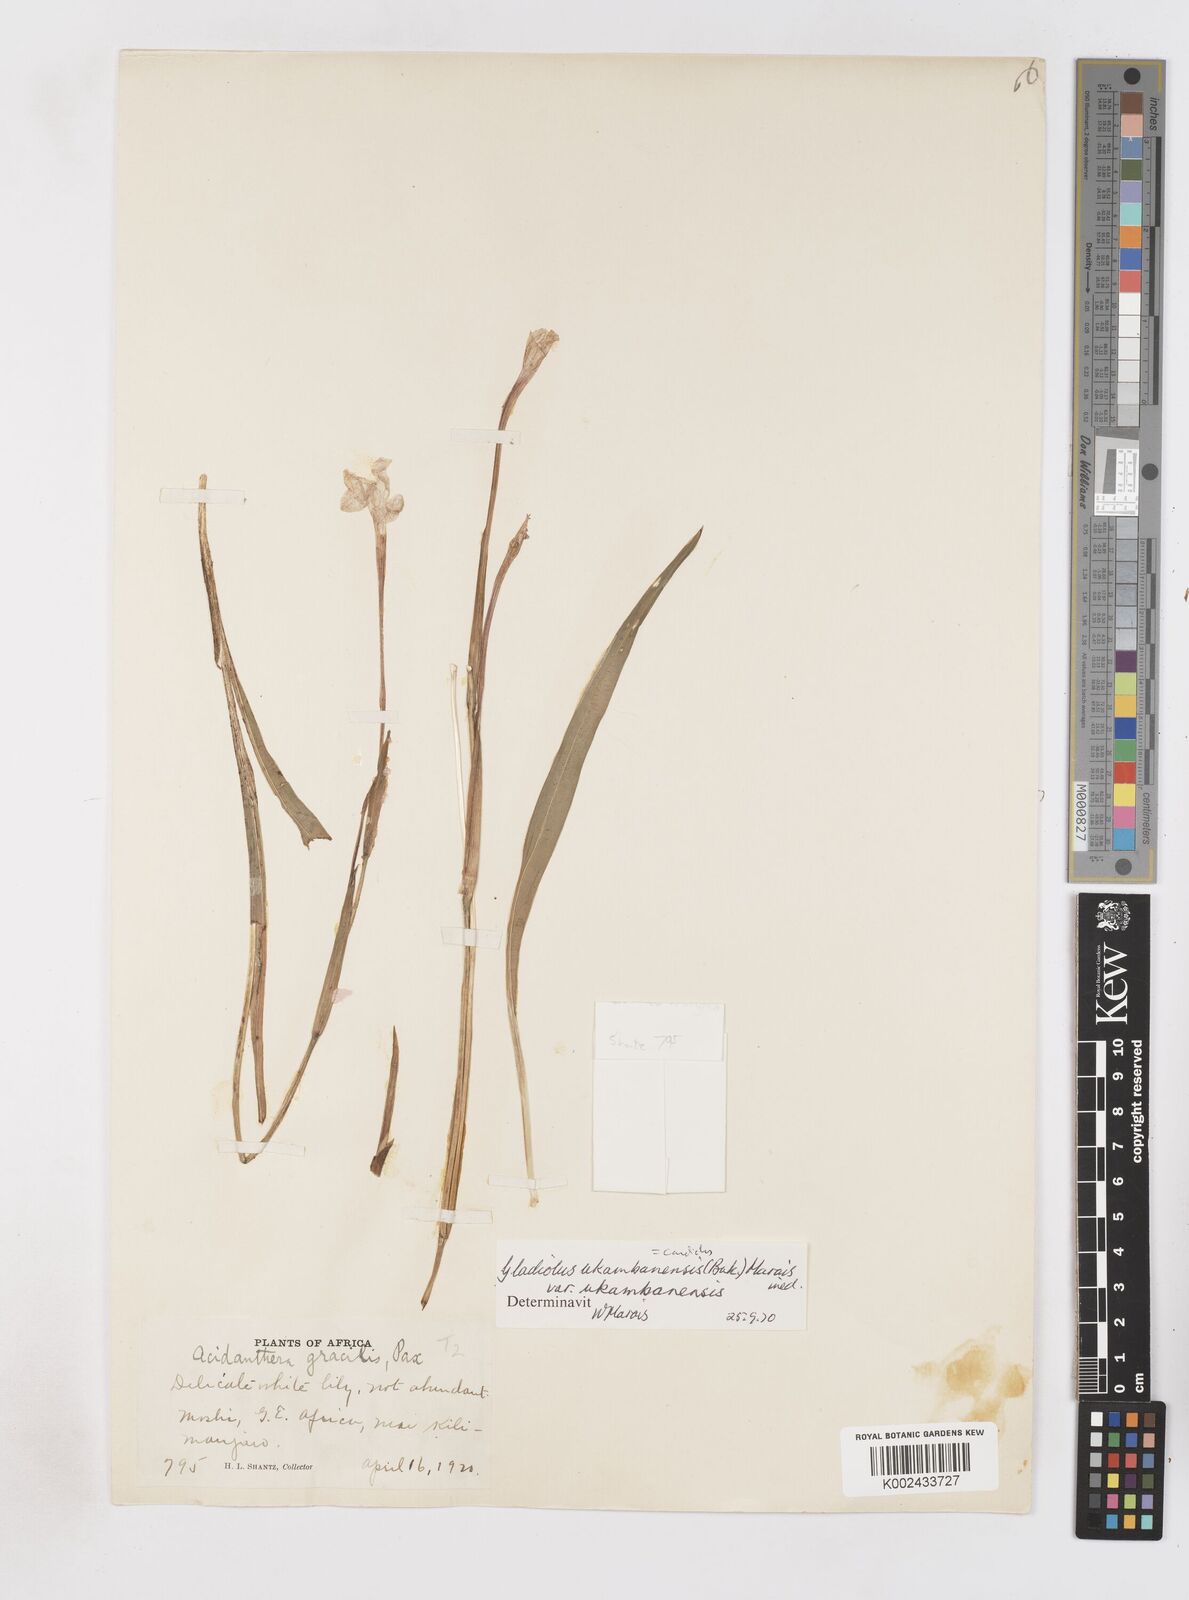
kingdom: Plantae
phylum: Tracheophyta
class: Liliopsida
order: Asparagales
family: Iridaceae
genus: Gladiolus
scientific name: Gladiolus candidus
